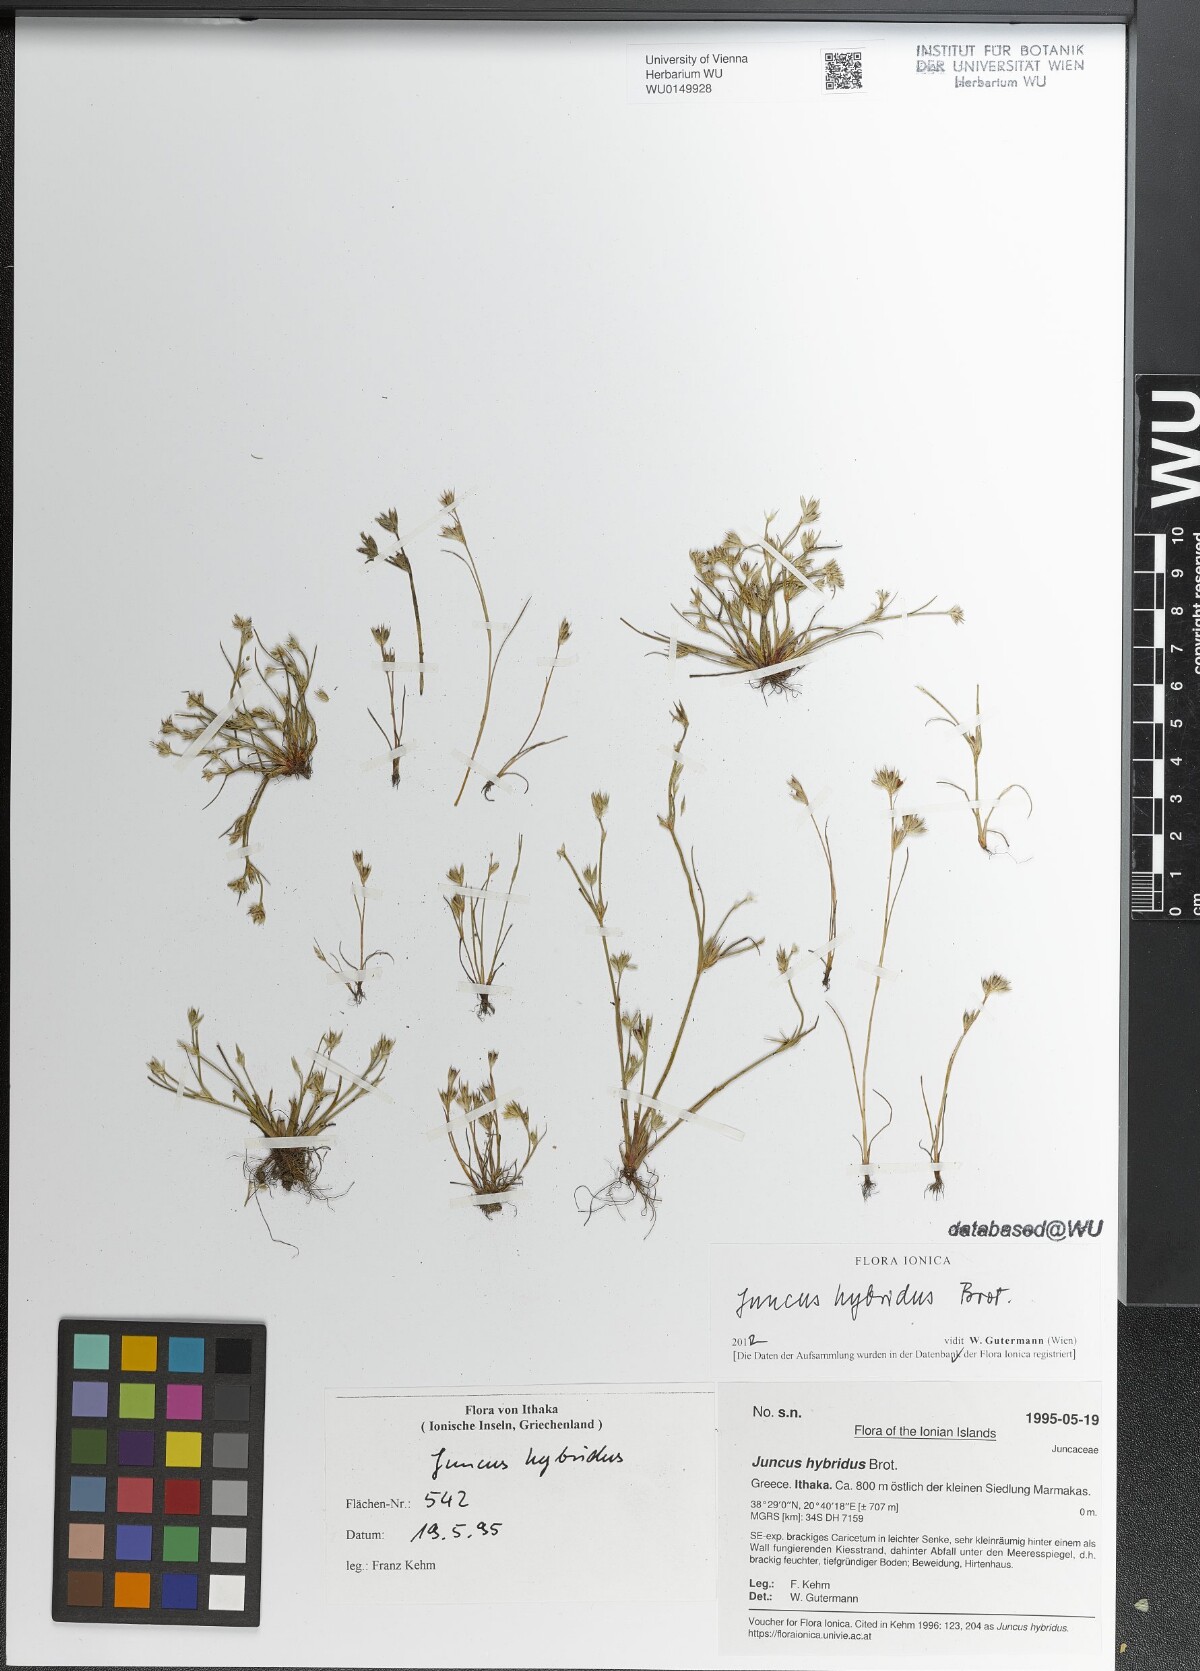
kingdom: Plantae
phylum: Tracheophyta
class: Liliopsida
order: Poales
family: Juncaceae
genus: Juncus
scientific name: Juncus hybridus
